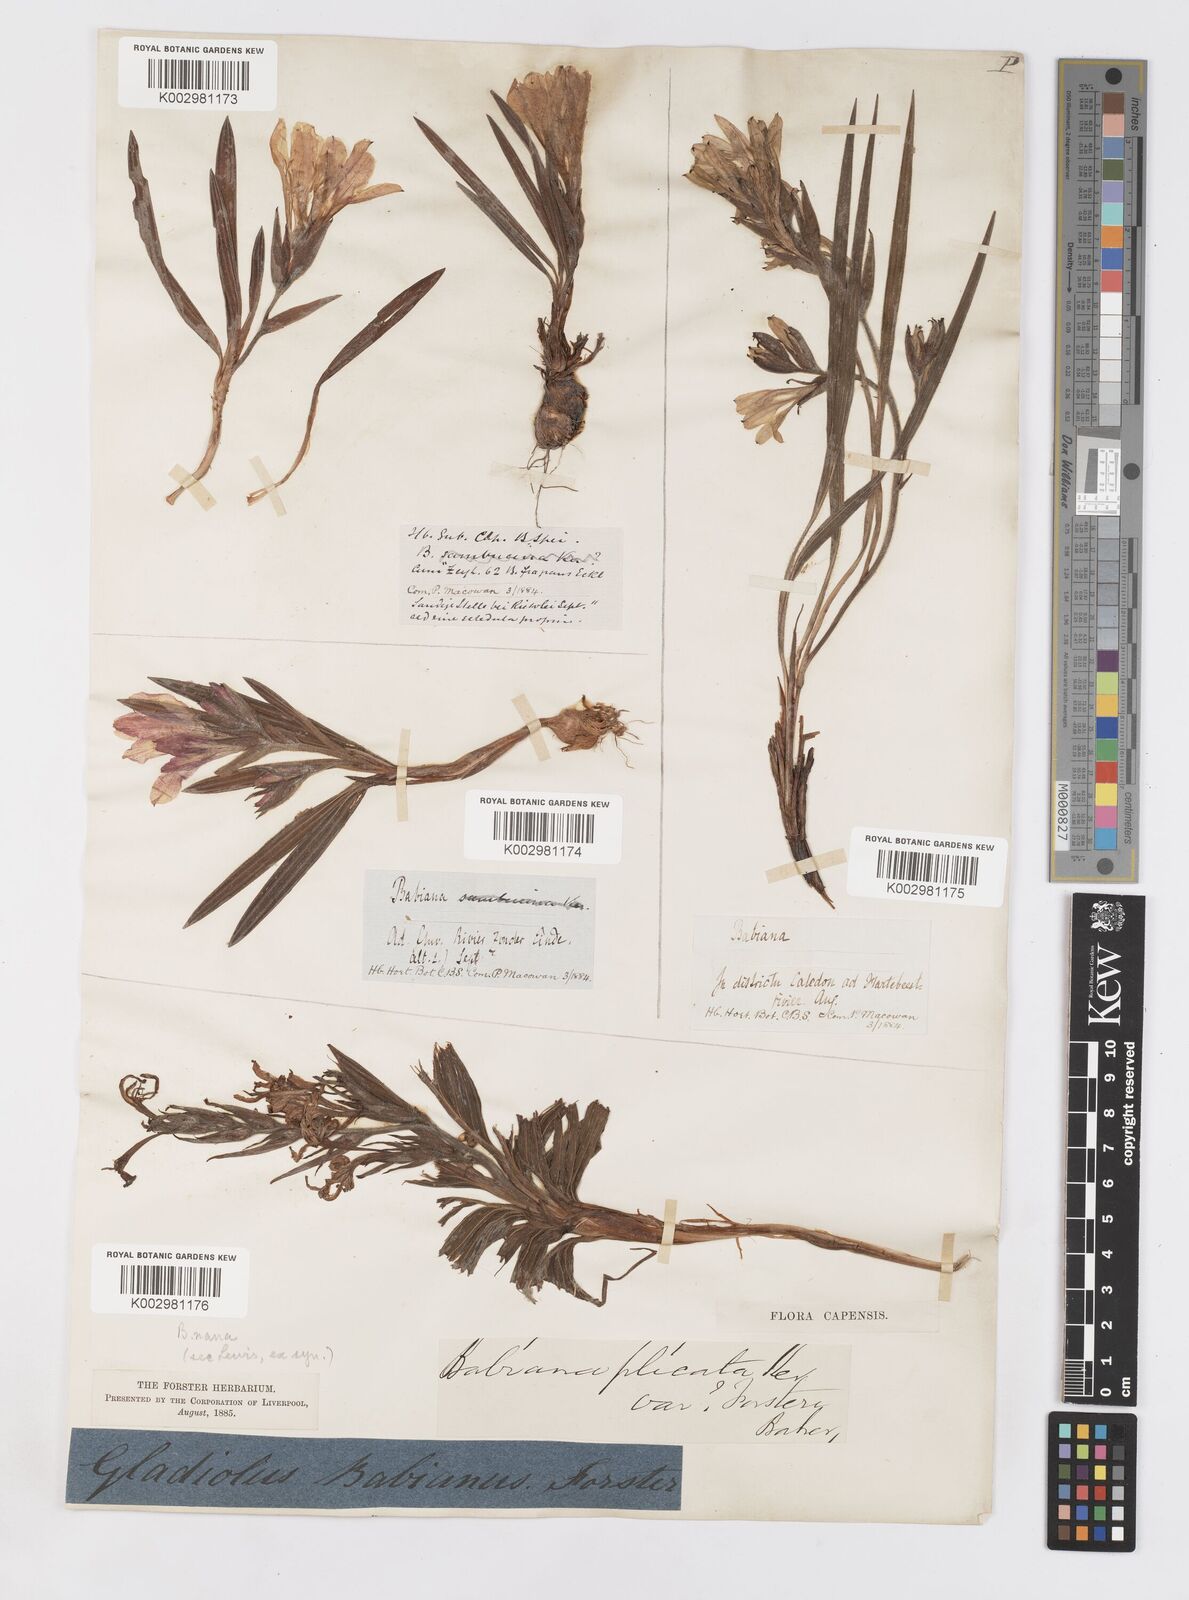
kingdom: Plantae
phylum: Tracheophyta
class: Liliopsida
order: Asparagales
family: Iridaceae
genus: Babiana
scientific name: Babiana fragrans
